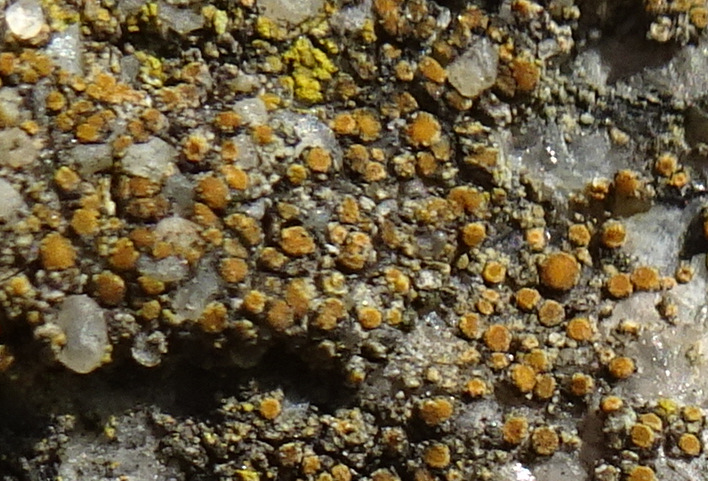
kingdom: Fungi
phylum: Ascomycota
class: Lecanoromycetes
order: Teloschistales
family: Teloschistaceae
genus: Athallia
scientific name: Athallia
